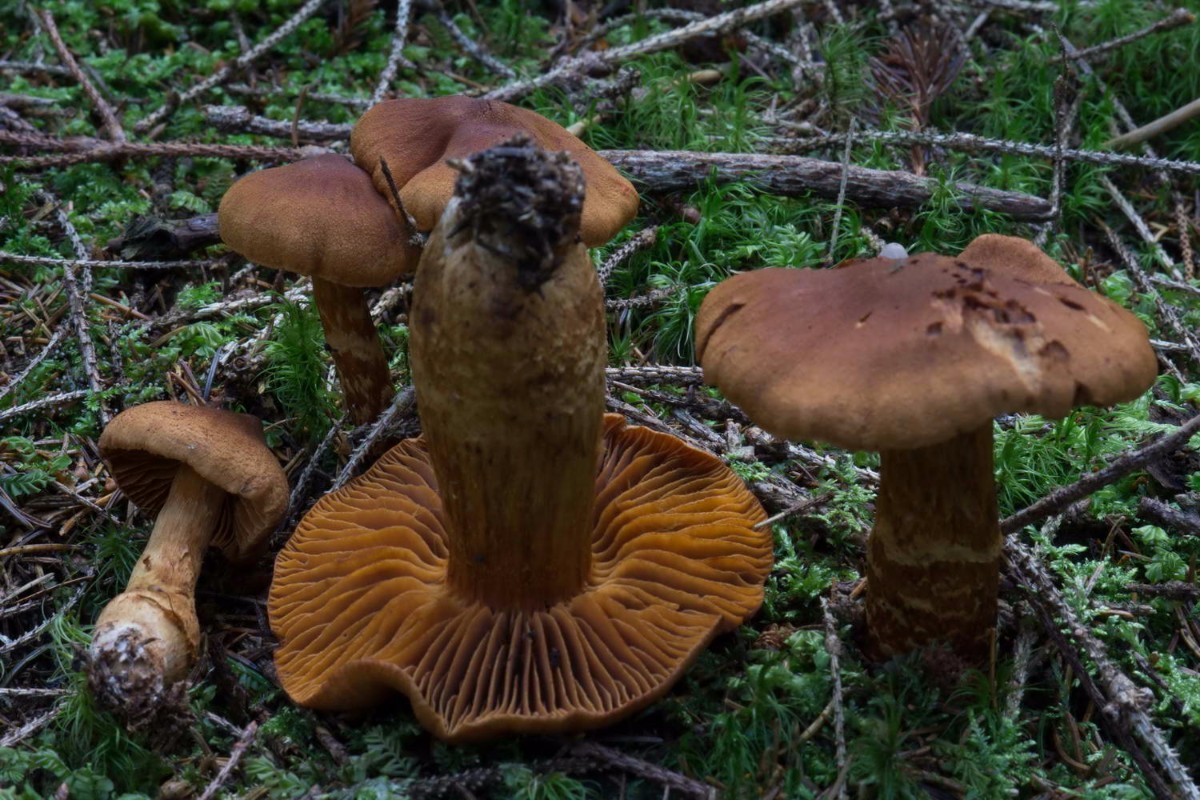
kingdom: Fungi
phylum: Basidiomycota
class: Agaricomycetes
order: Agaricales
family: Cortinariaceae
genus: Cortinarius
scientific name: Cortinarius rubellus
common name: puklet gift-slørhat
